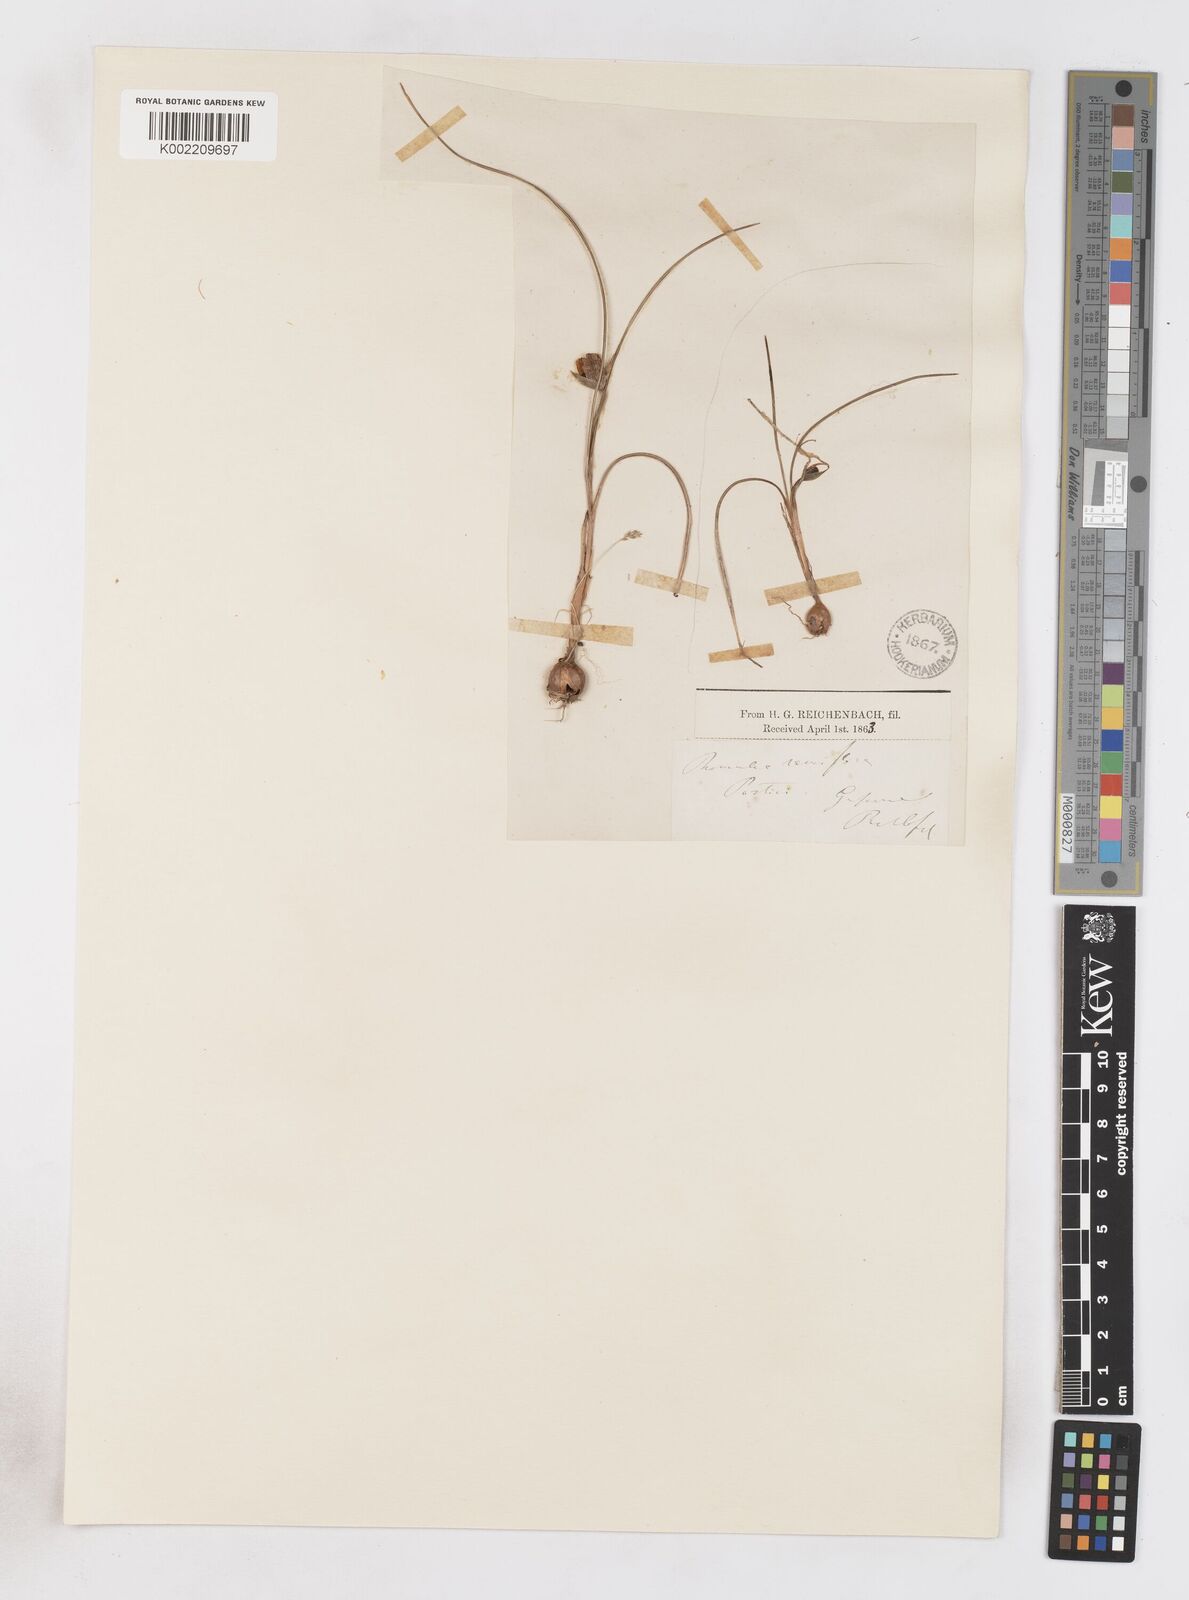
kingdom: Plantae
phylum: Tracheophyta
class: Liliopsida
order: Asparagales
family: Iridaceae
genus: Romulea
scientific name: Romulea ramiflora
